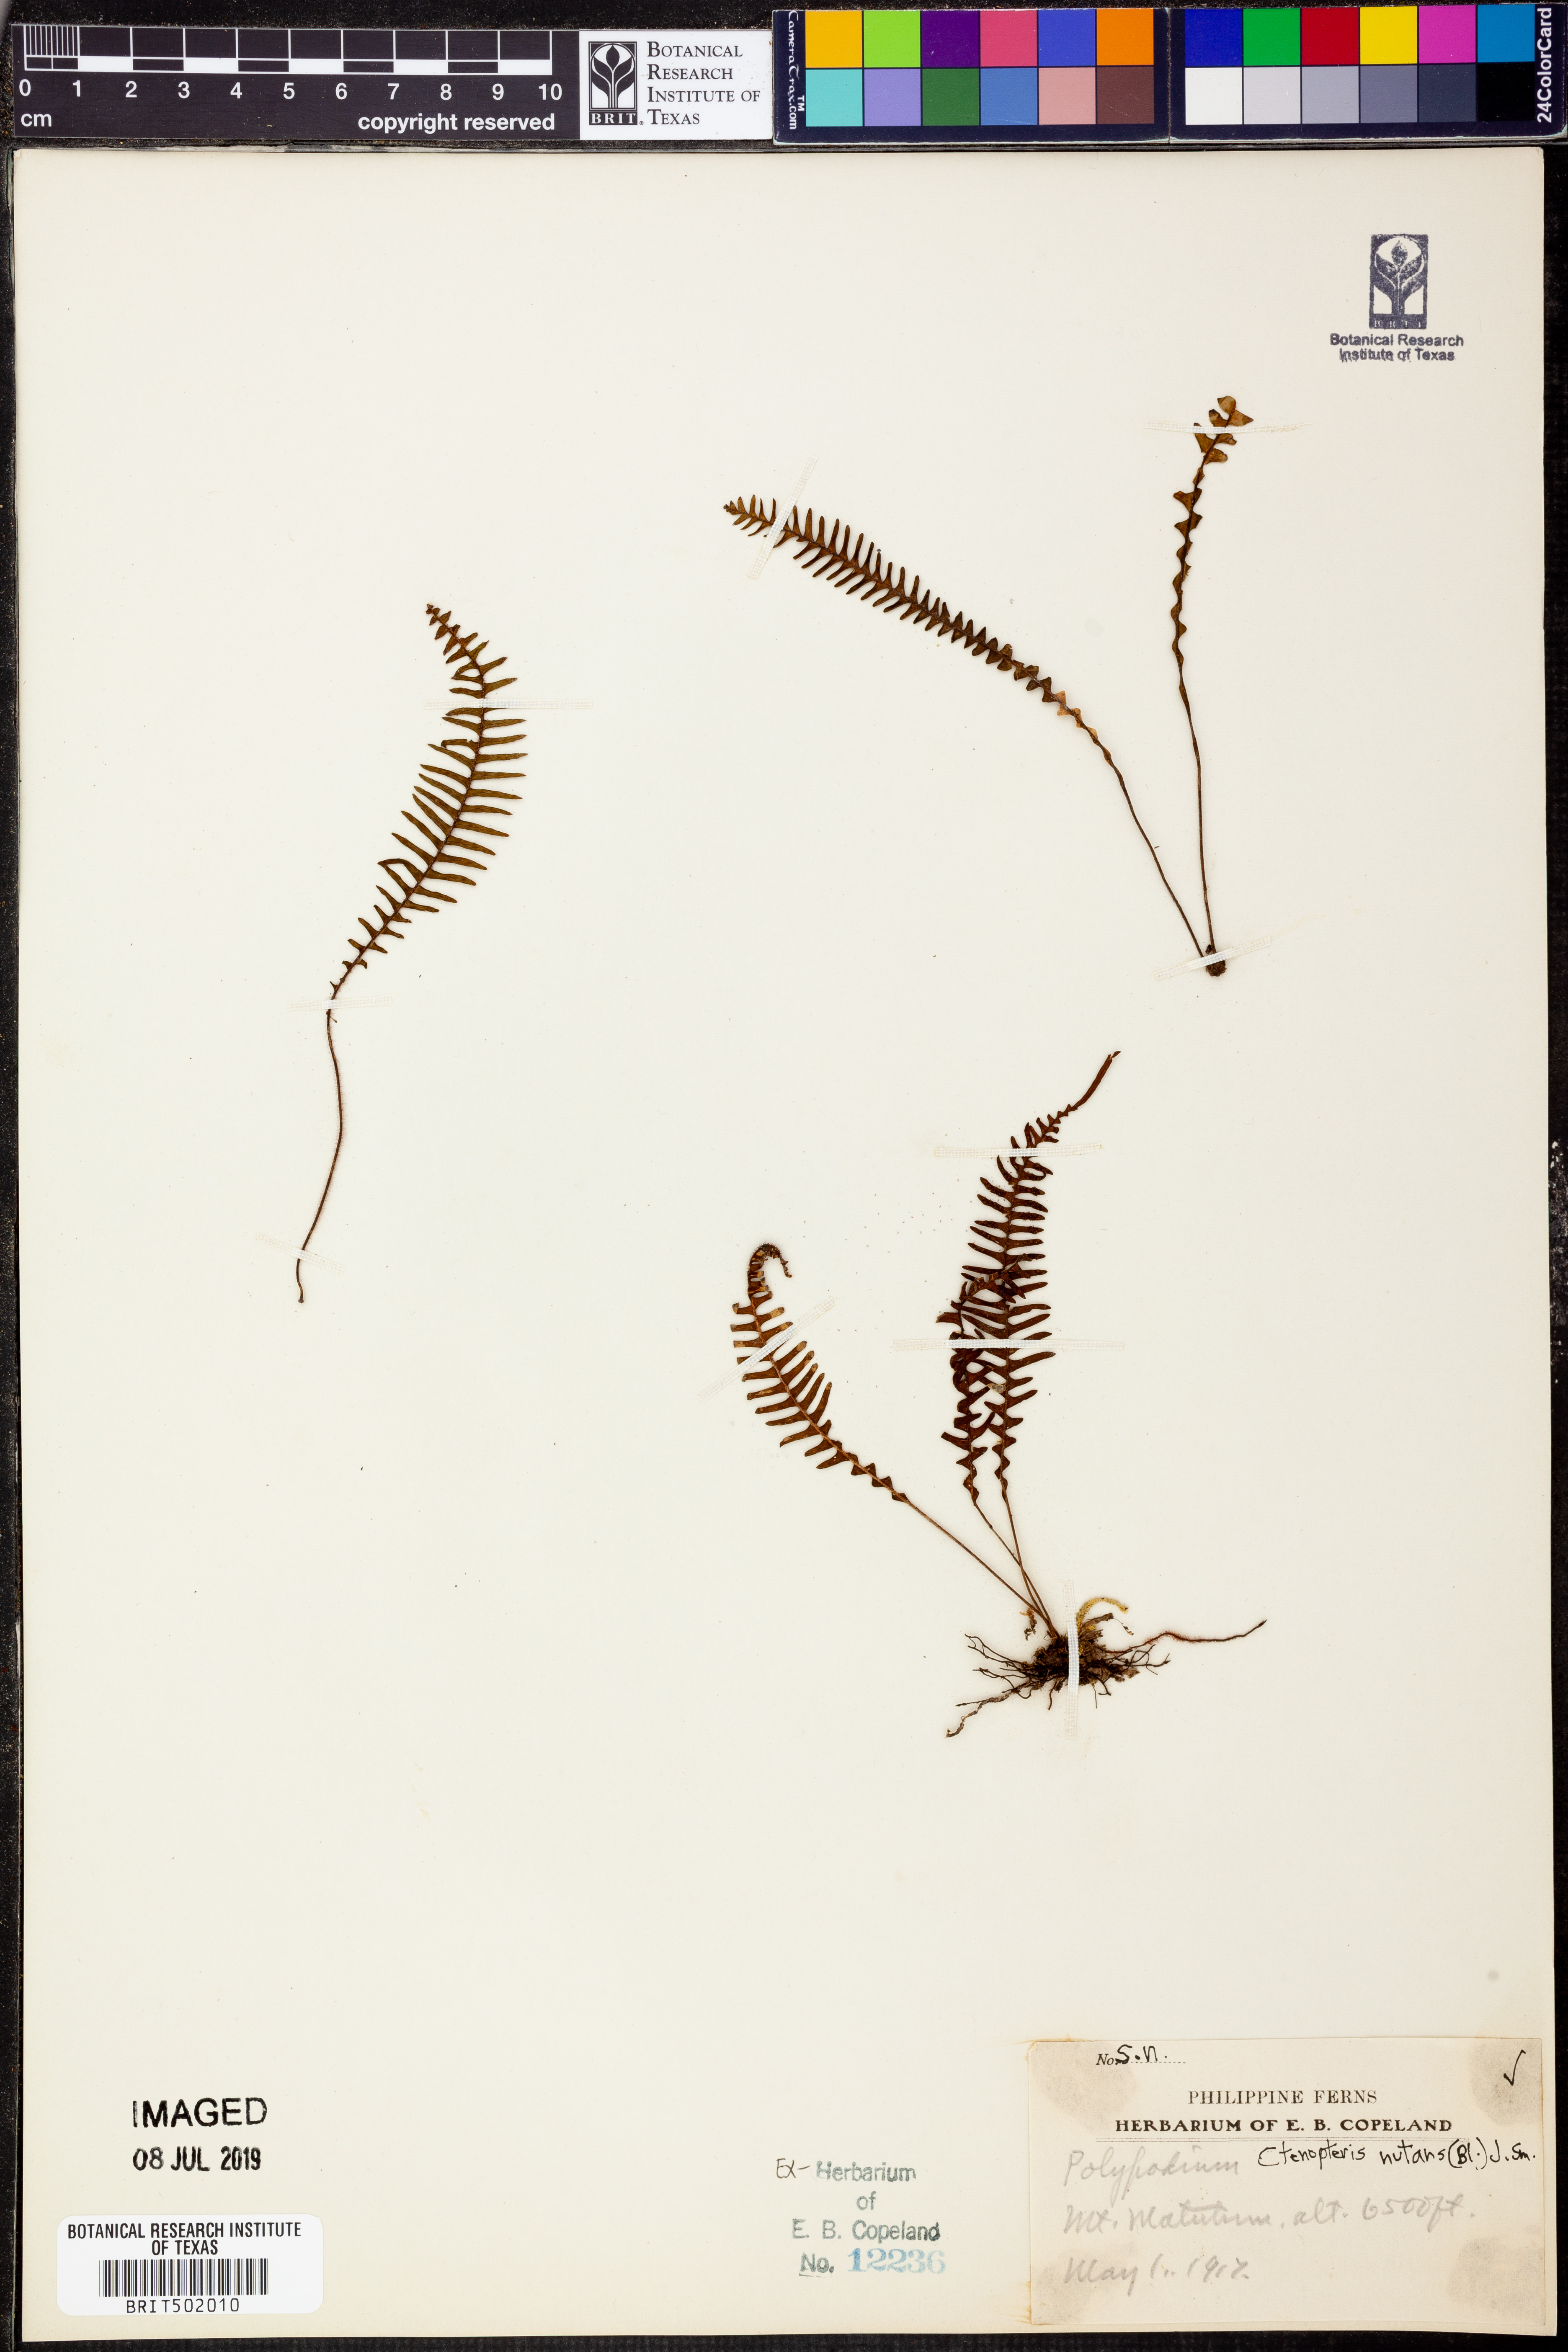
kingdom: Plantae
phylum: Tracheophyta
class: Polypodiopsida
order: Polypodiales
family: Polypodiaceae
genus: Prosaptia
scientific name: Prosaptia nutans
